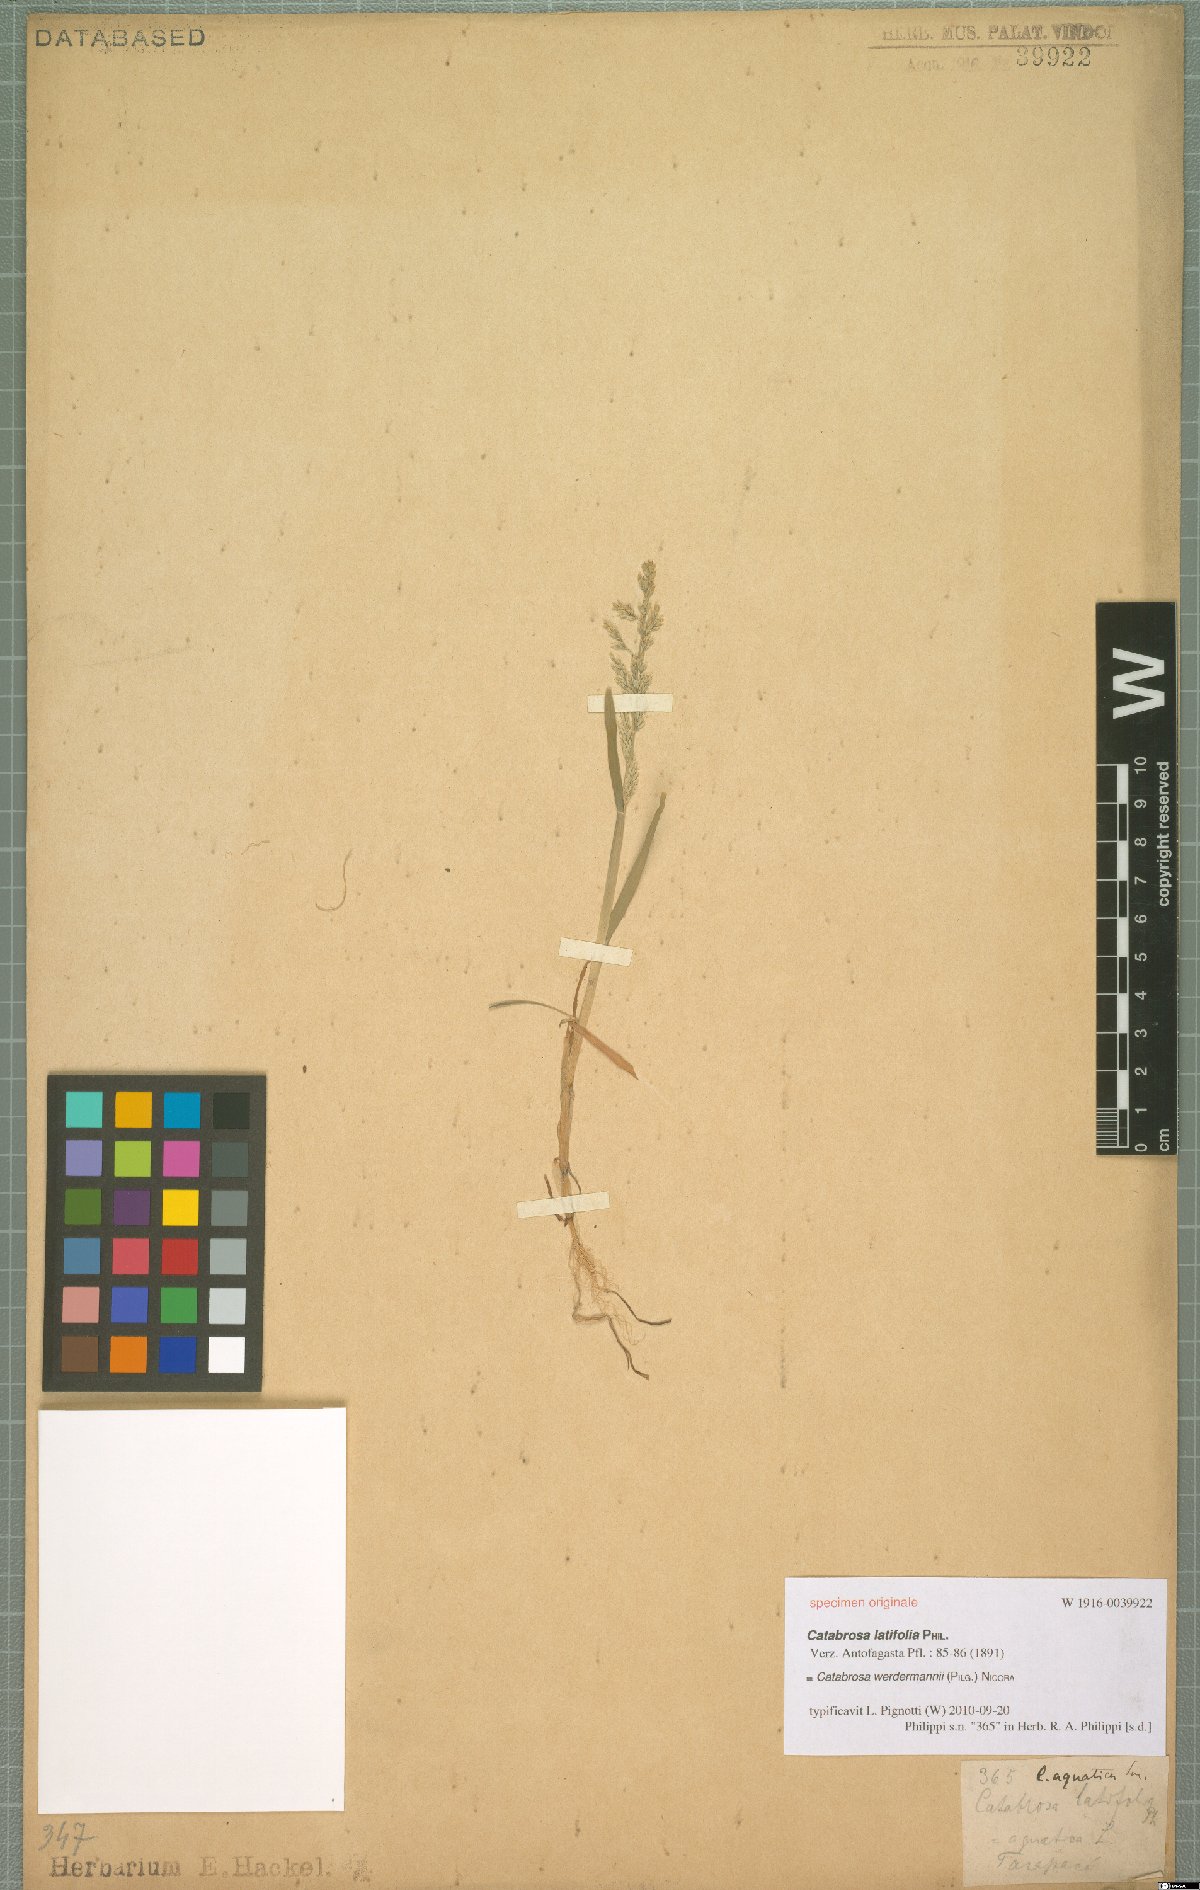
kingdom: Plantae
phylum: Tracheophyta
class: Liliopsida
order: Poales
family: Poaceae
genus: Catabrosa
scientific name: Catabrosa werdermannii
